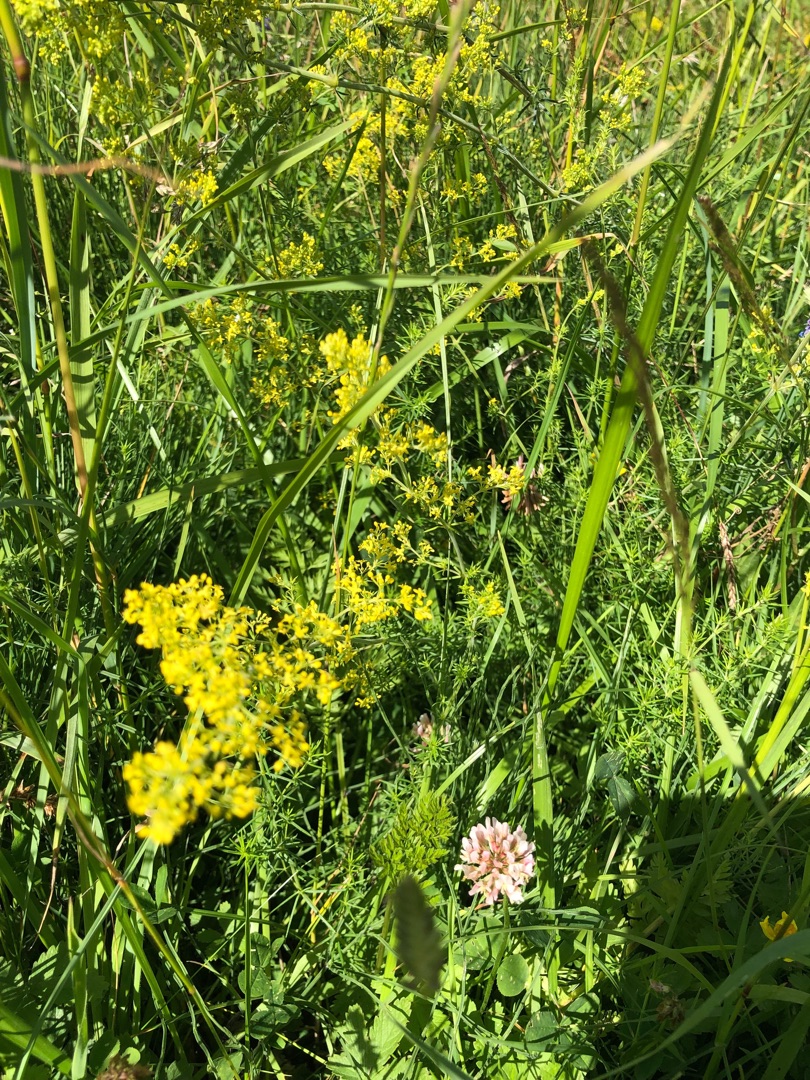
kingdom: Plantae
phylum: Tracheophyta
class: Magnoliopsida
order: Gentianales
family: Rubiaceae
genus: Galium
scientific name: Galium verum
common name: Gul snerre
